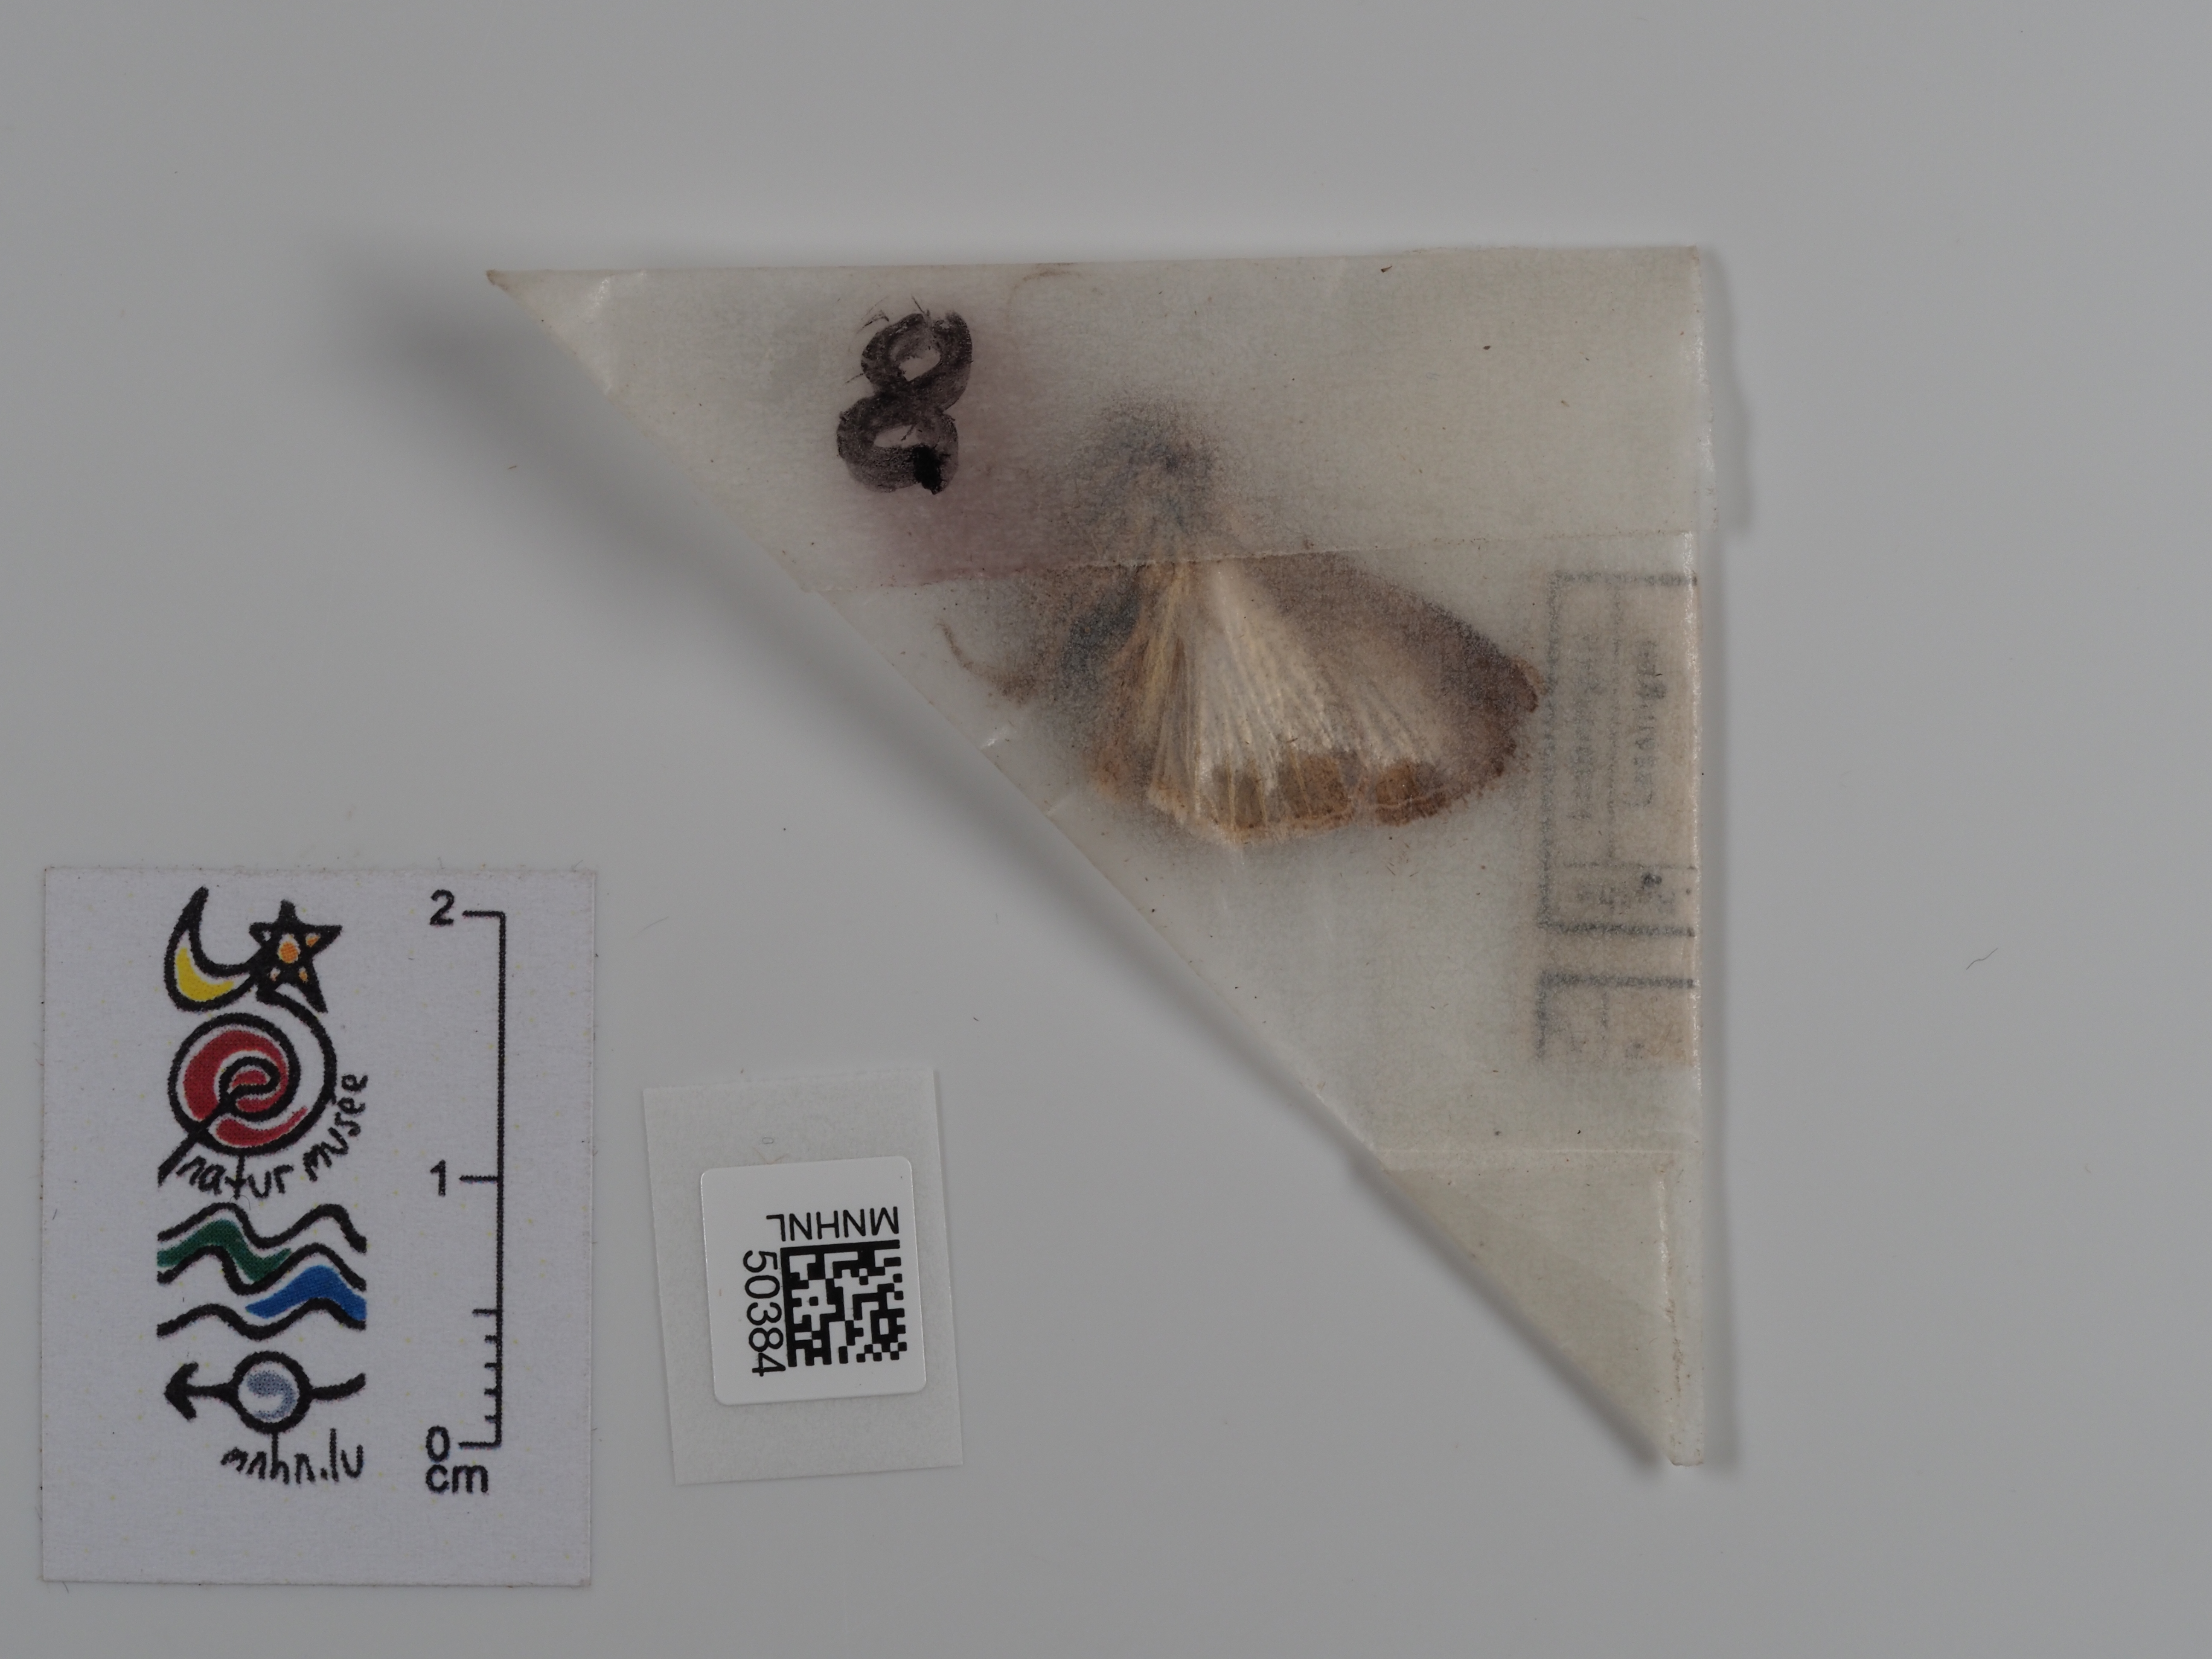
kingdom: Animalia
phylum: Arthropoda
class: Insecta
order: Lepidoptera
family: Noctuidae
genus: Mythimna
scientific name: Mythimna albipuncta
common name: White-point
